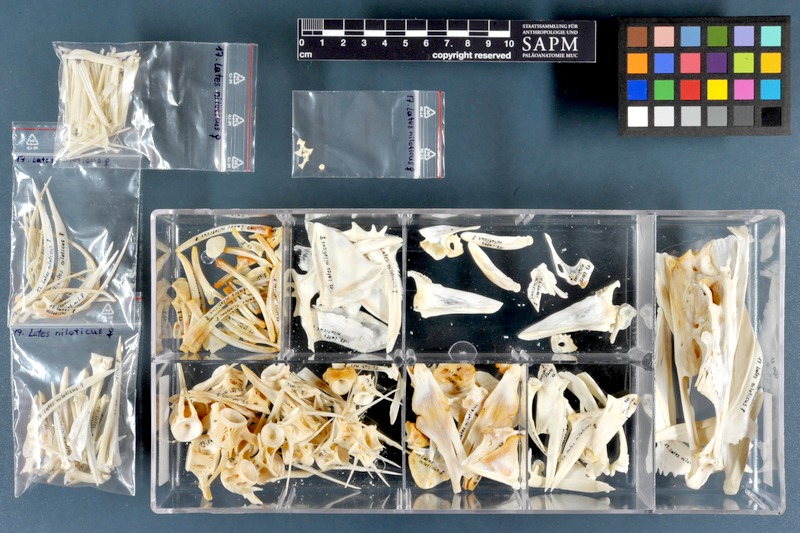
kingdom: Animalia
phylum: Chordata
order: Perciformes
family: Latidae
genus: Lates
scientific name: Lates niloticus
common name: Nile perch
